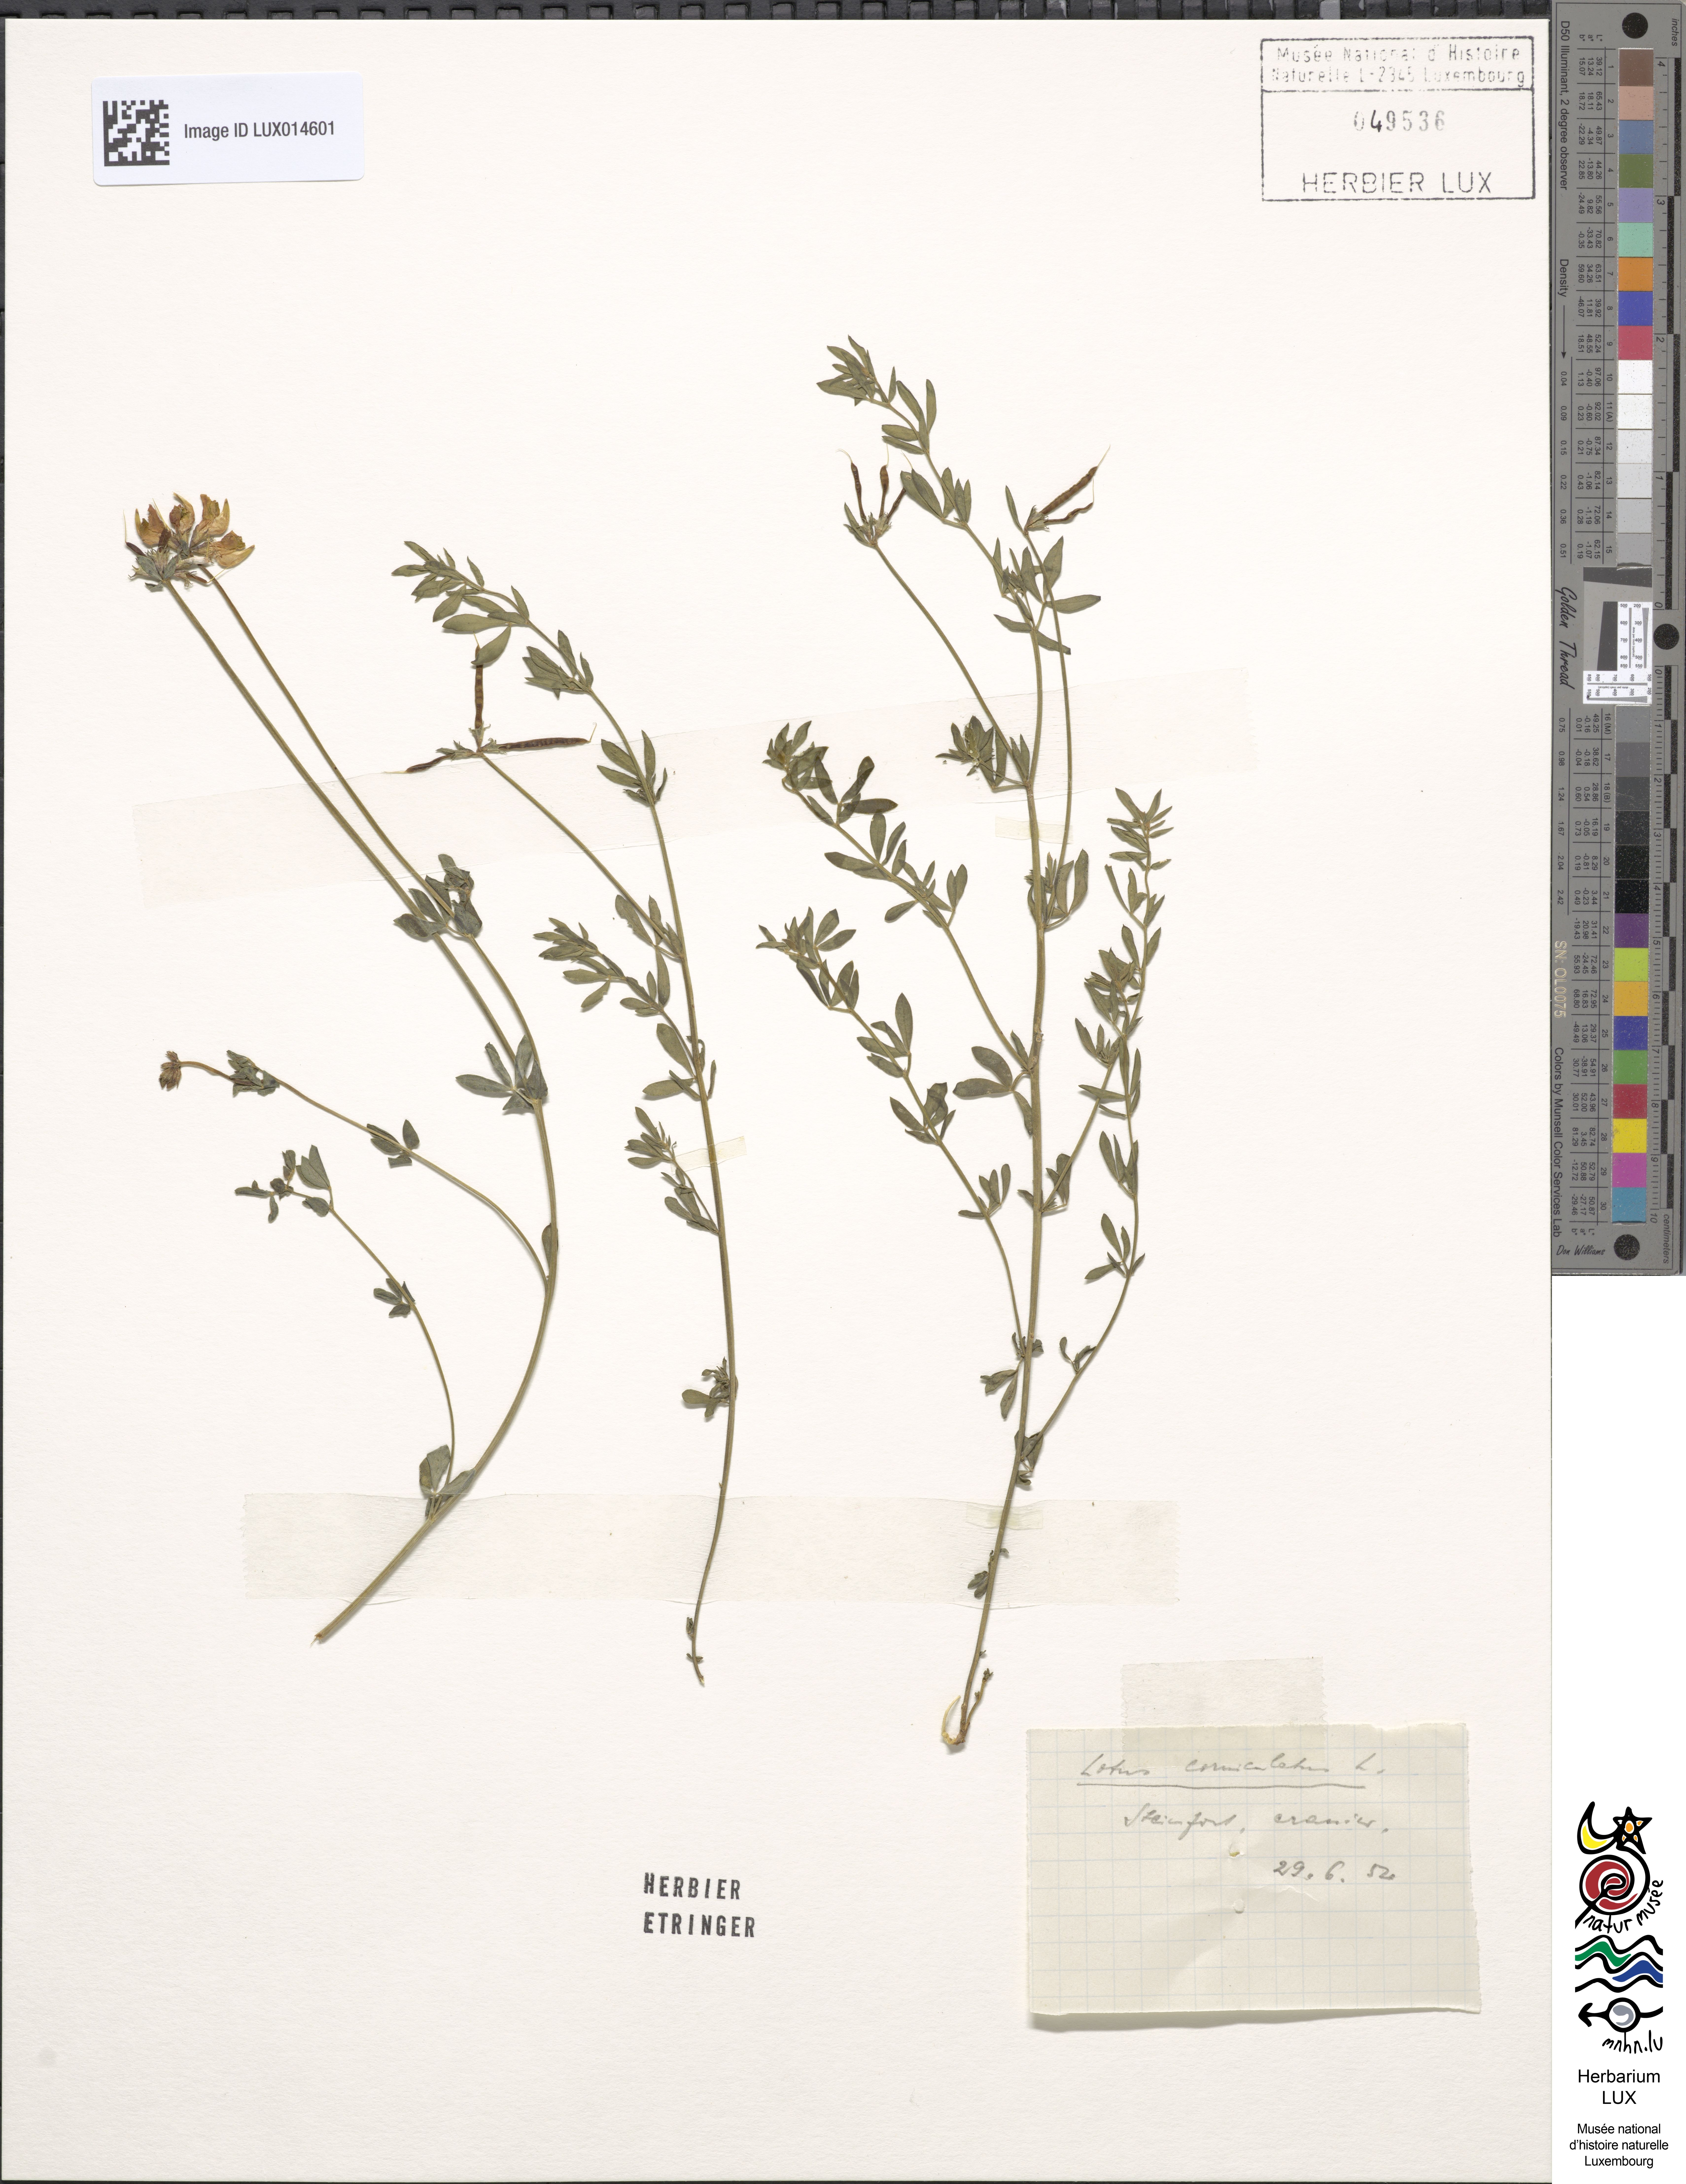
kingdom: Plantae
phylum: Tracheophyta
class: Magnoliopsida
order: Fabales
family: Fabaceae
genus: Lotus
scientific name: Lotus corniculatus
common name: Common bird's-foot-trefoil
